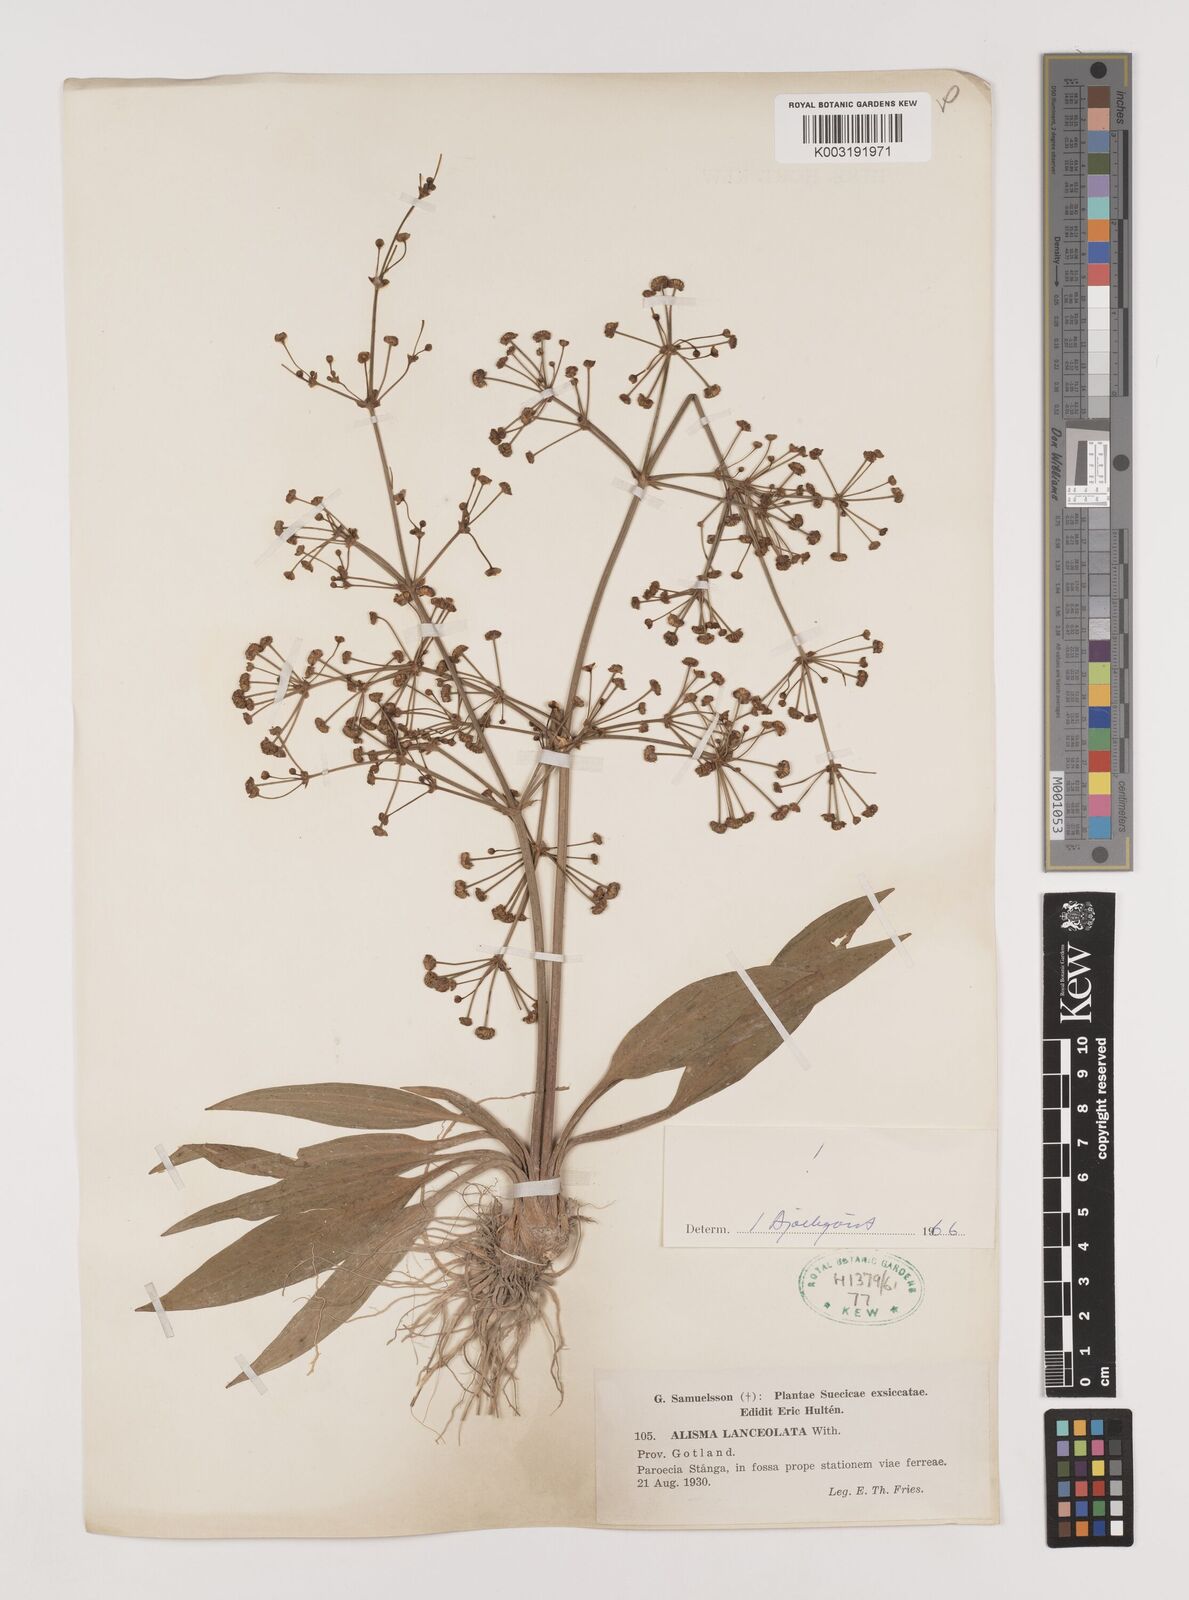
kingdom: Plantae
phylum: Tracheophyta
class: Liliopsida
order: Alismatales
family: Alismataceae
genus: Alisma
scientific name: Alisma lanceolatum
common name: Narrow-leaved water-plantain
